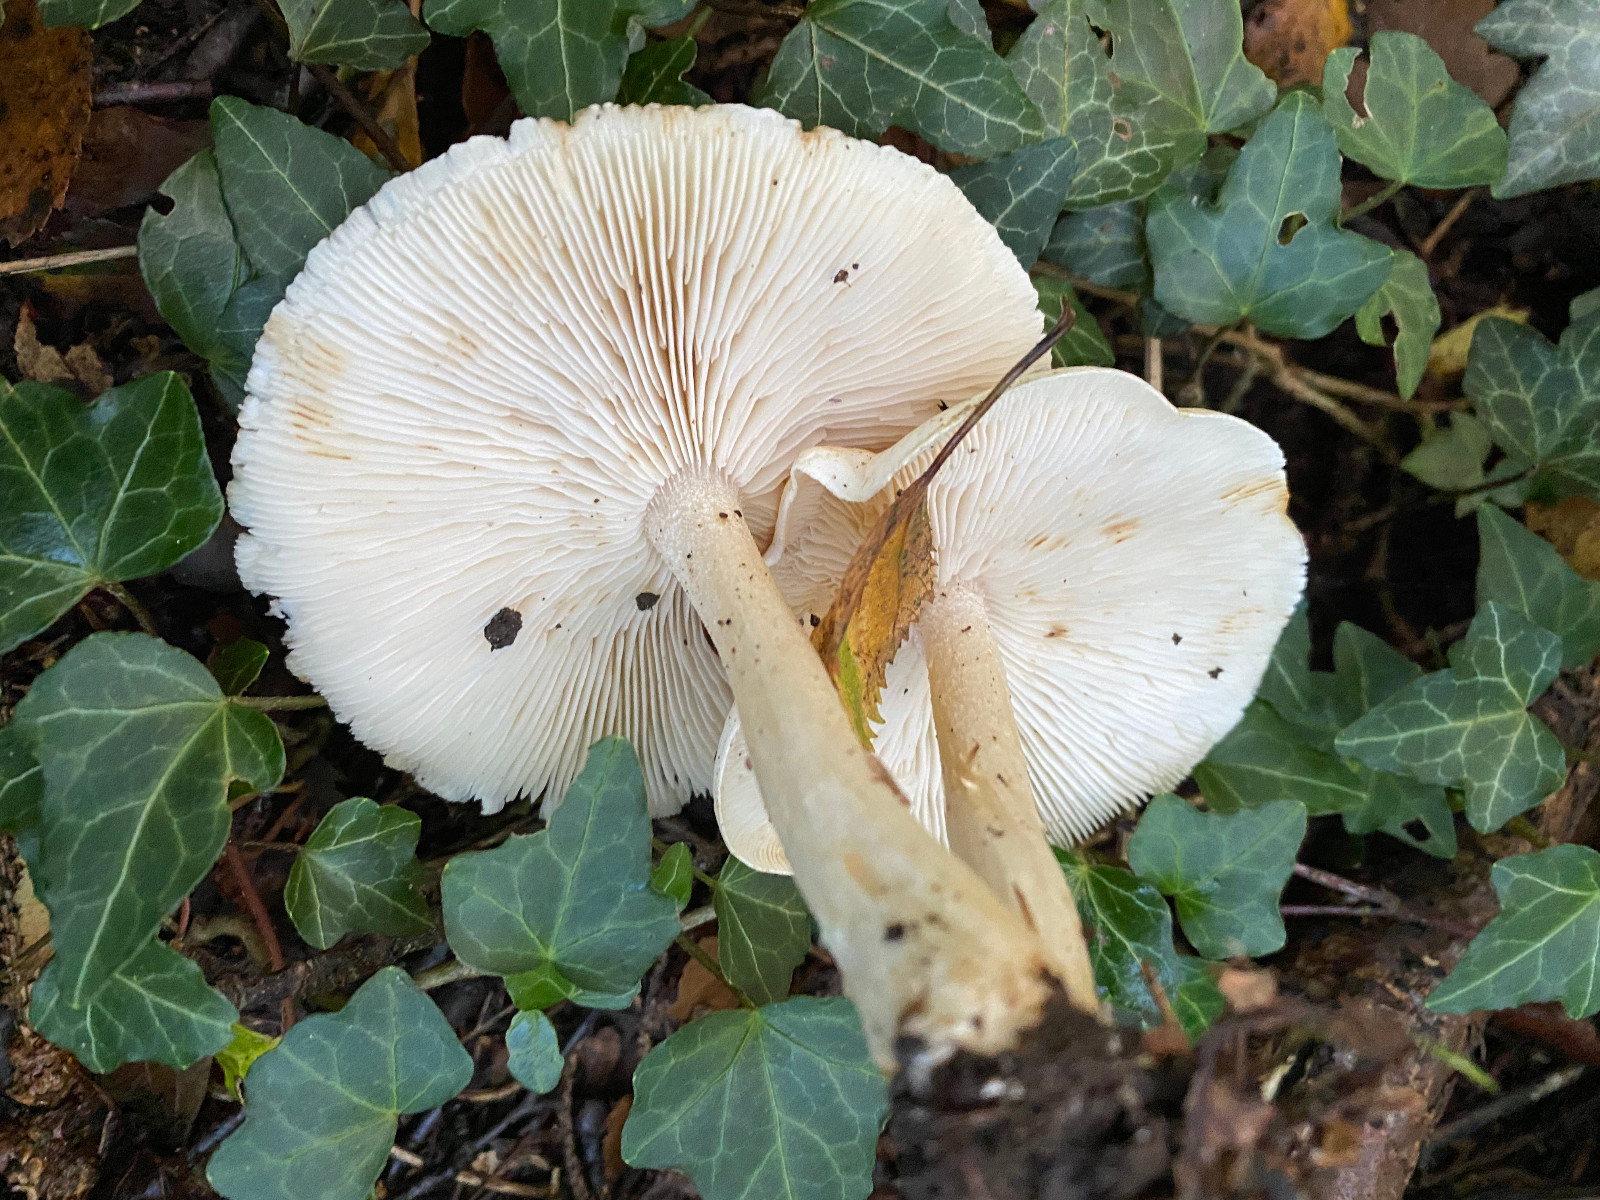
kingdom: Fungi
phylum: Basidiomycota
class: Agaricomycetes
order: Agaricales
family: Tricholomataceae
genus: Tricholoma
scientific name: Tricholoma
